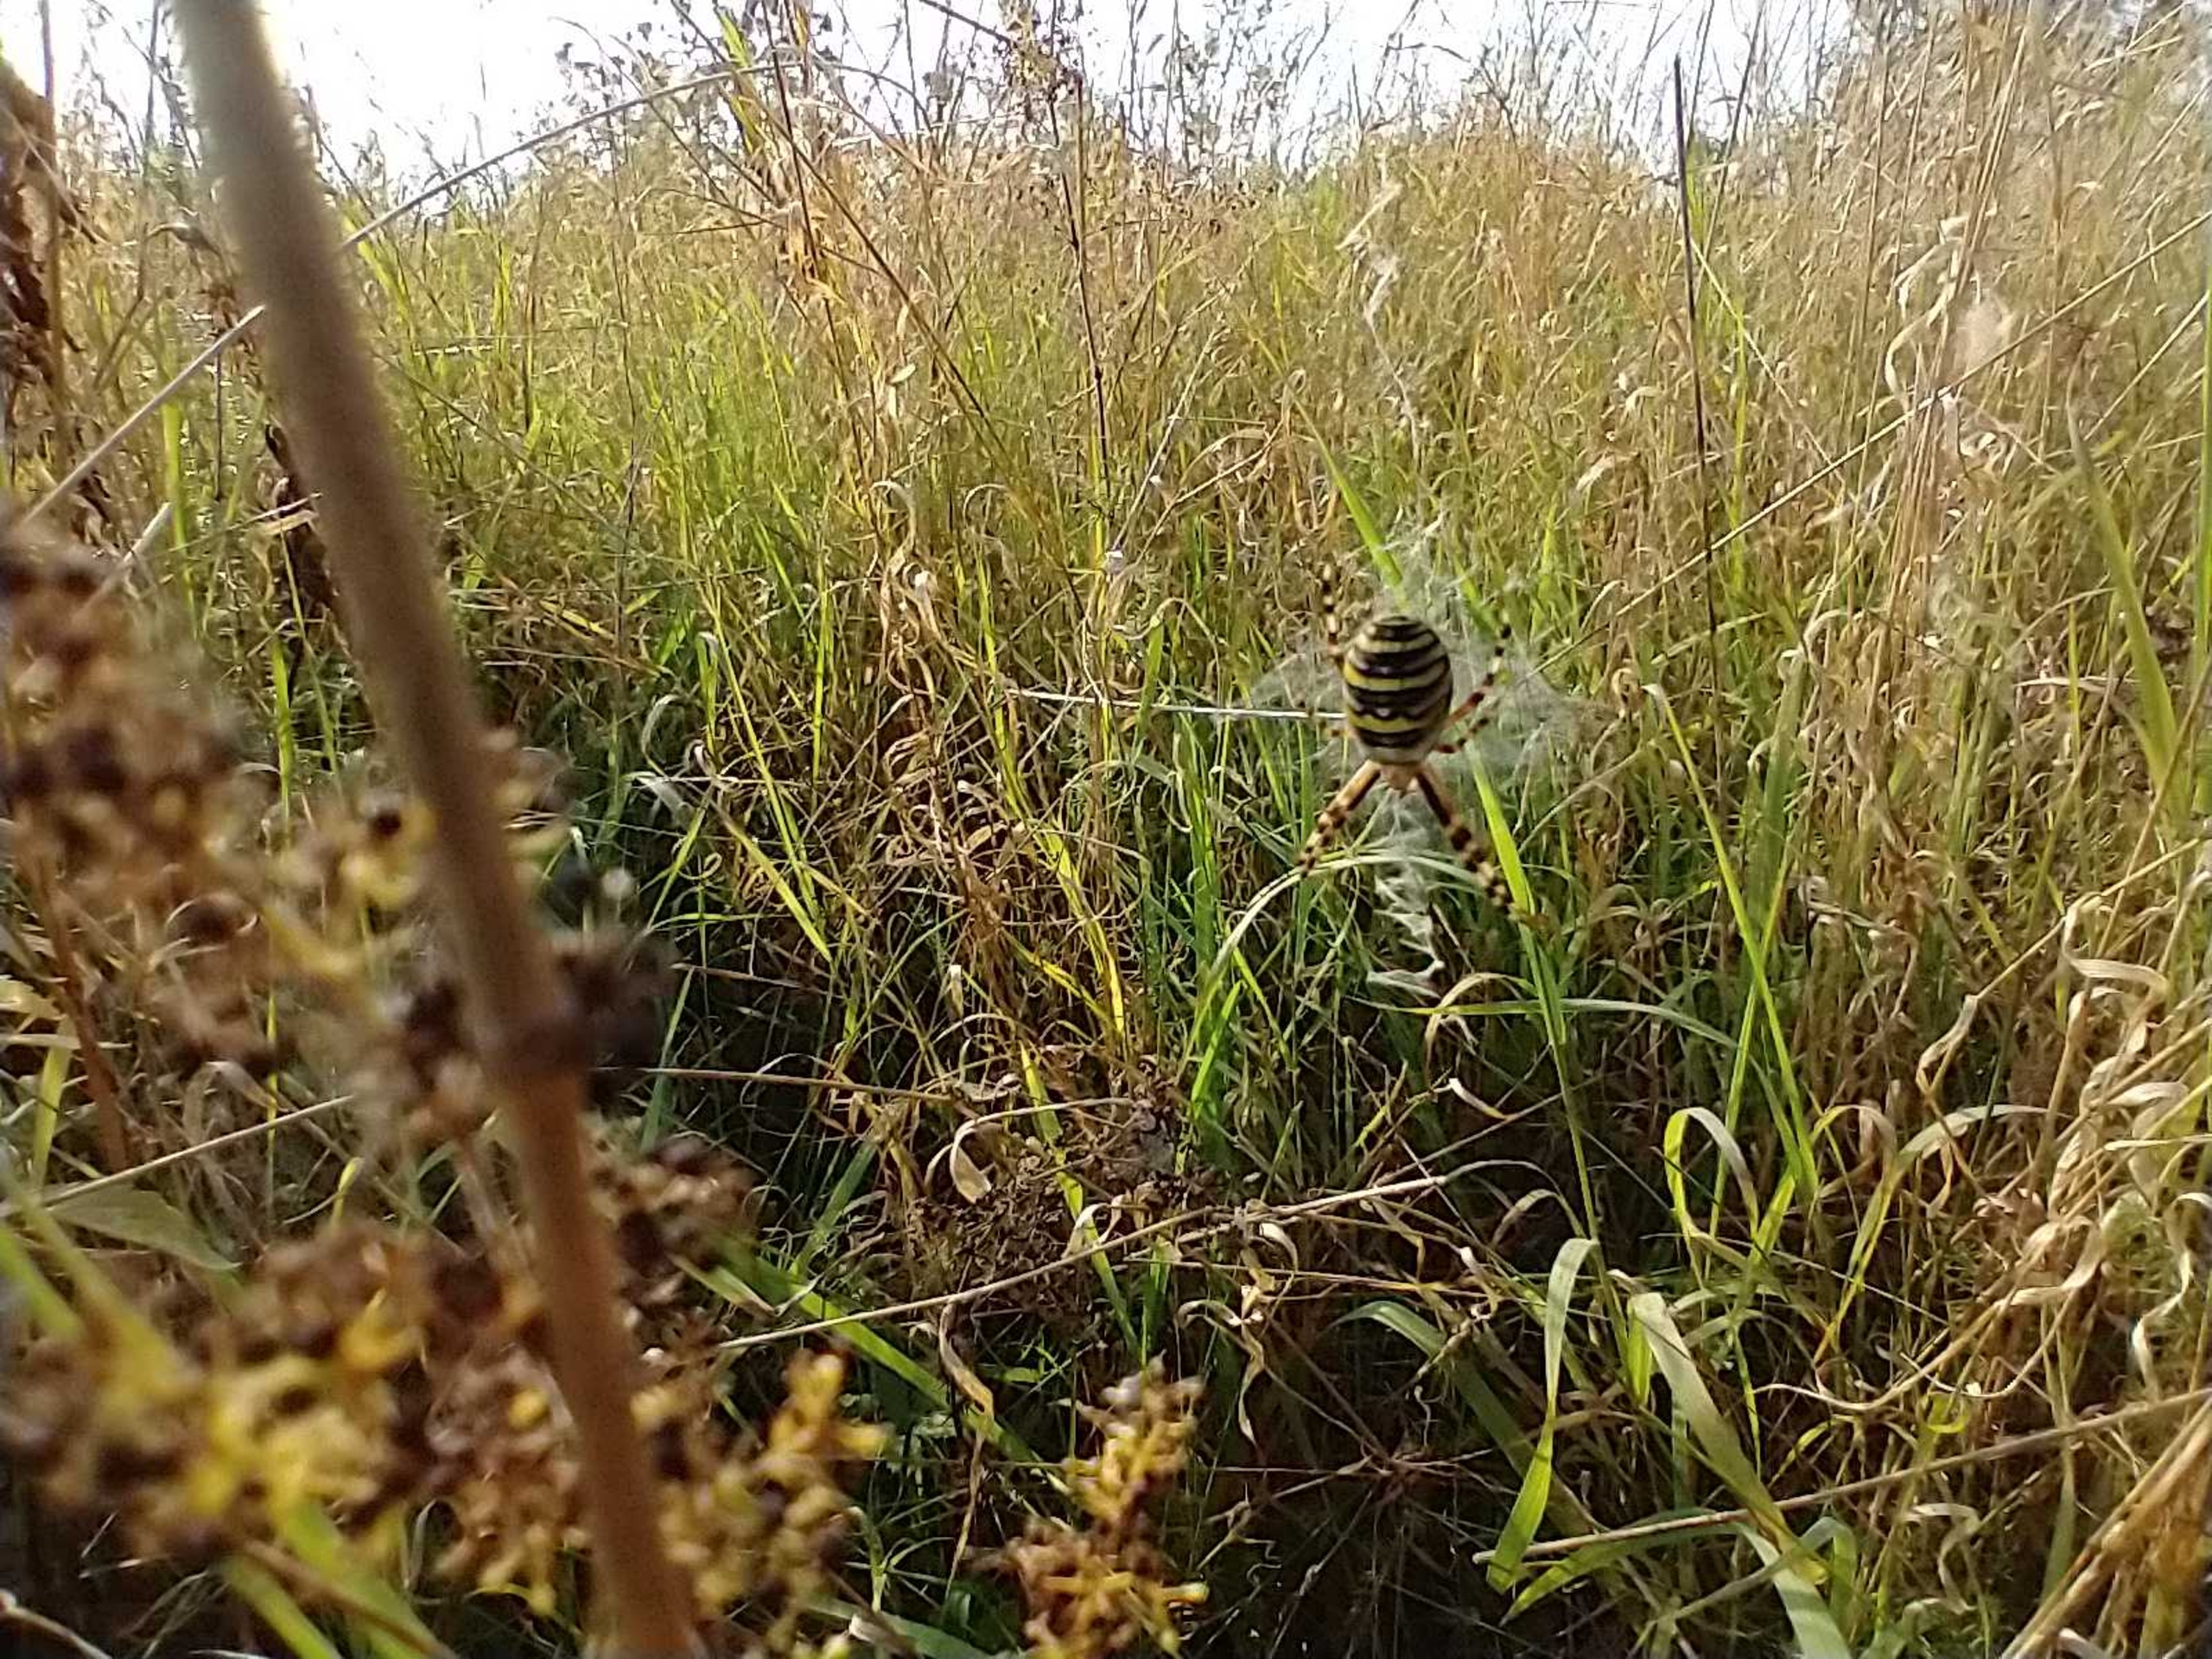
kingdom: Animalia
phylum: Arthropoda
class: Arachnida
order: Araneae
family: Araneidae
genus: Argiope
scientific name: Argiope bruennichi
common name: Hvepseedderkop
